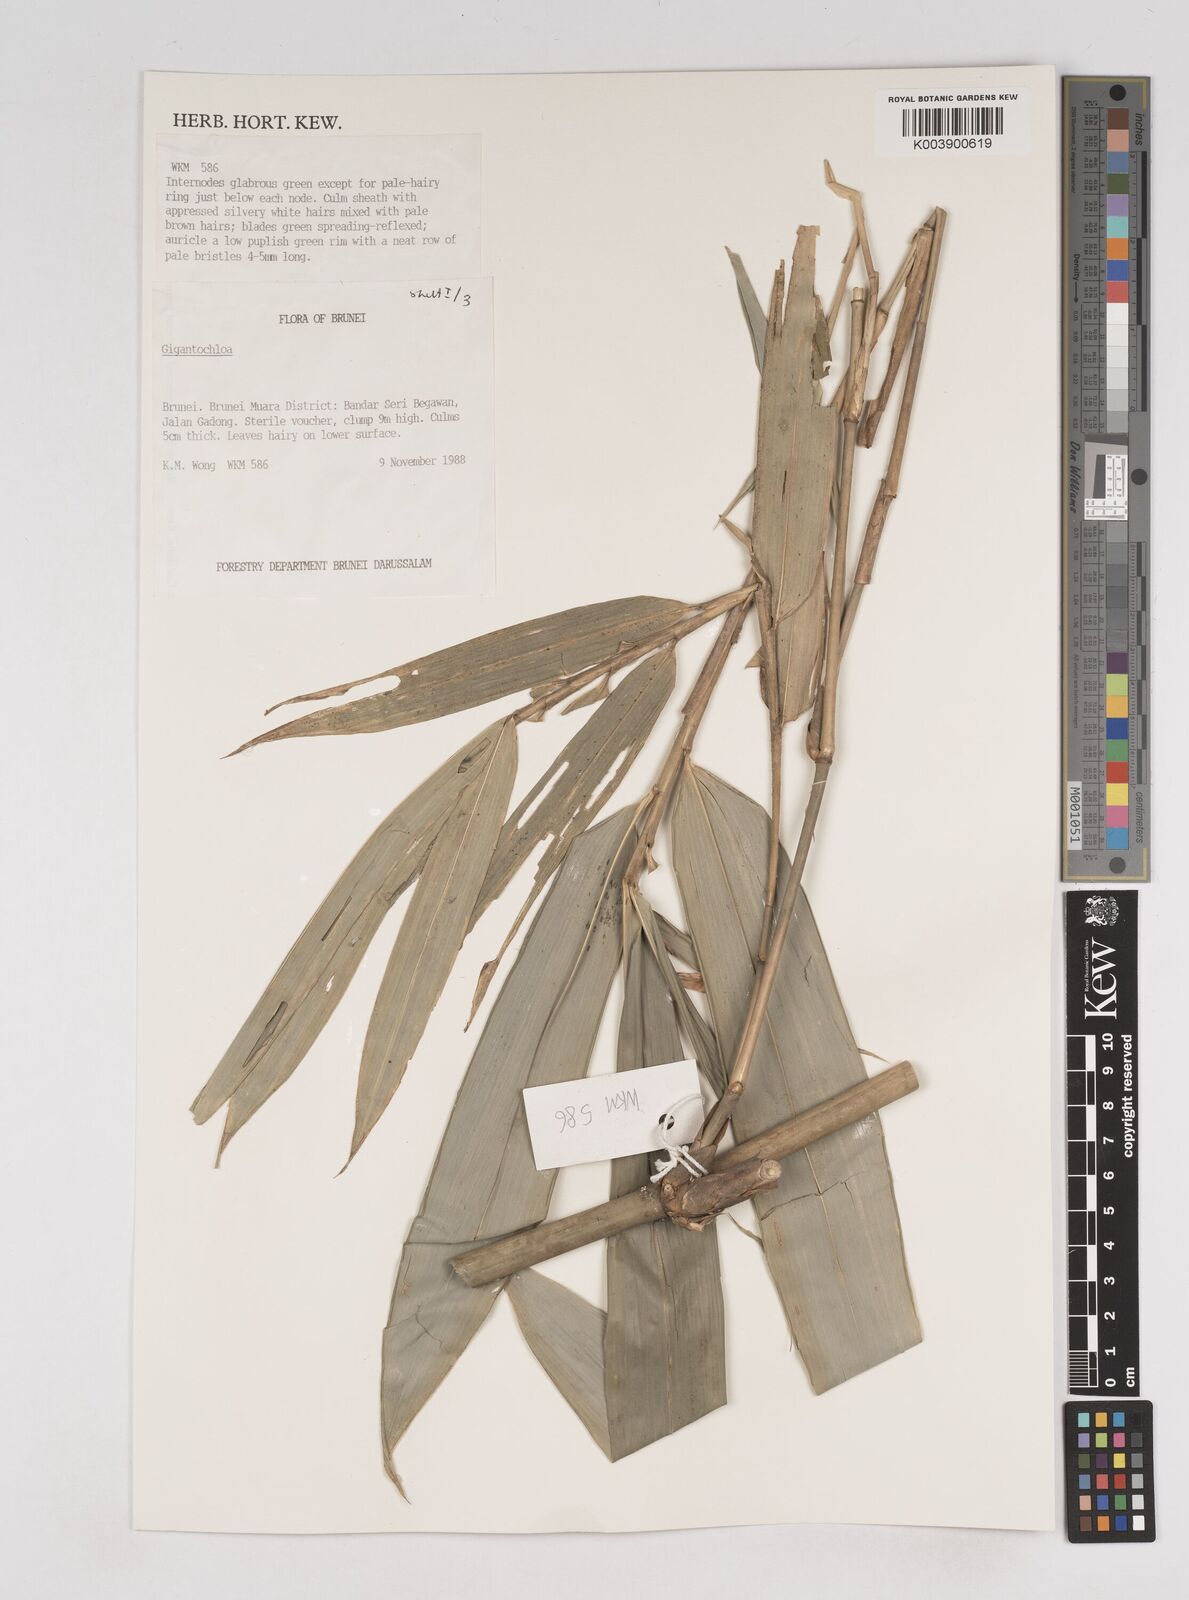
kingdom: Plantae
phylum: Tracheophyta
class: Liliopsida
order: Poales
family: Poaceae
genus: Gigantochloa
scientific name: Gigantochloa
